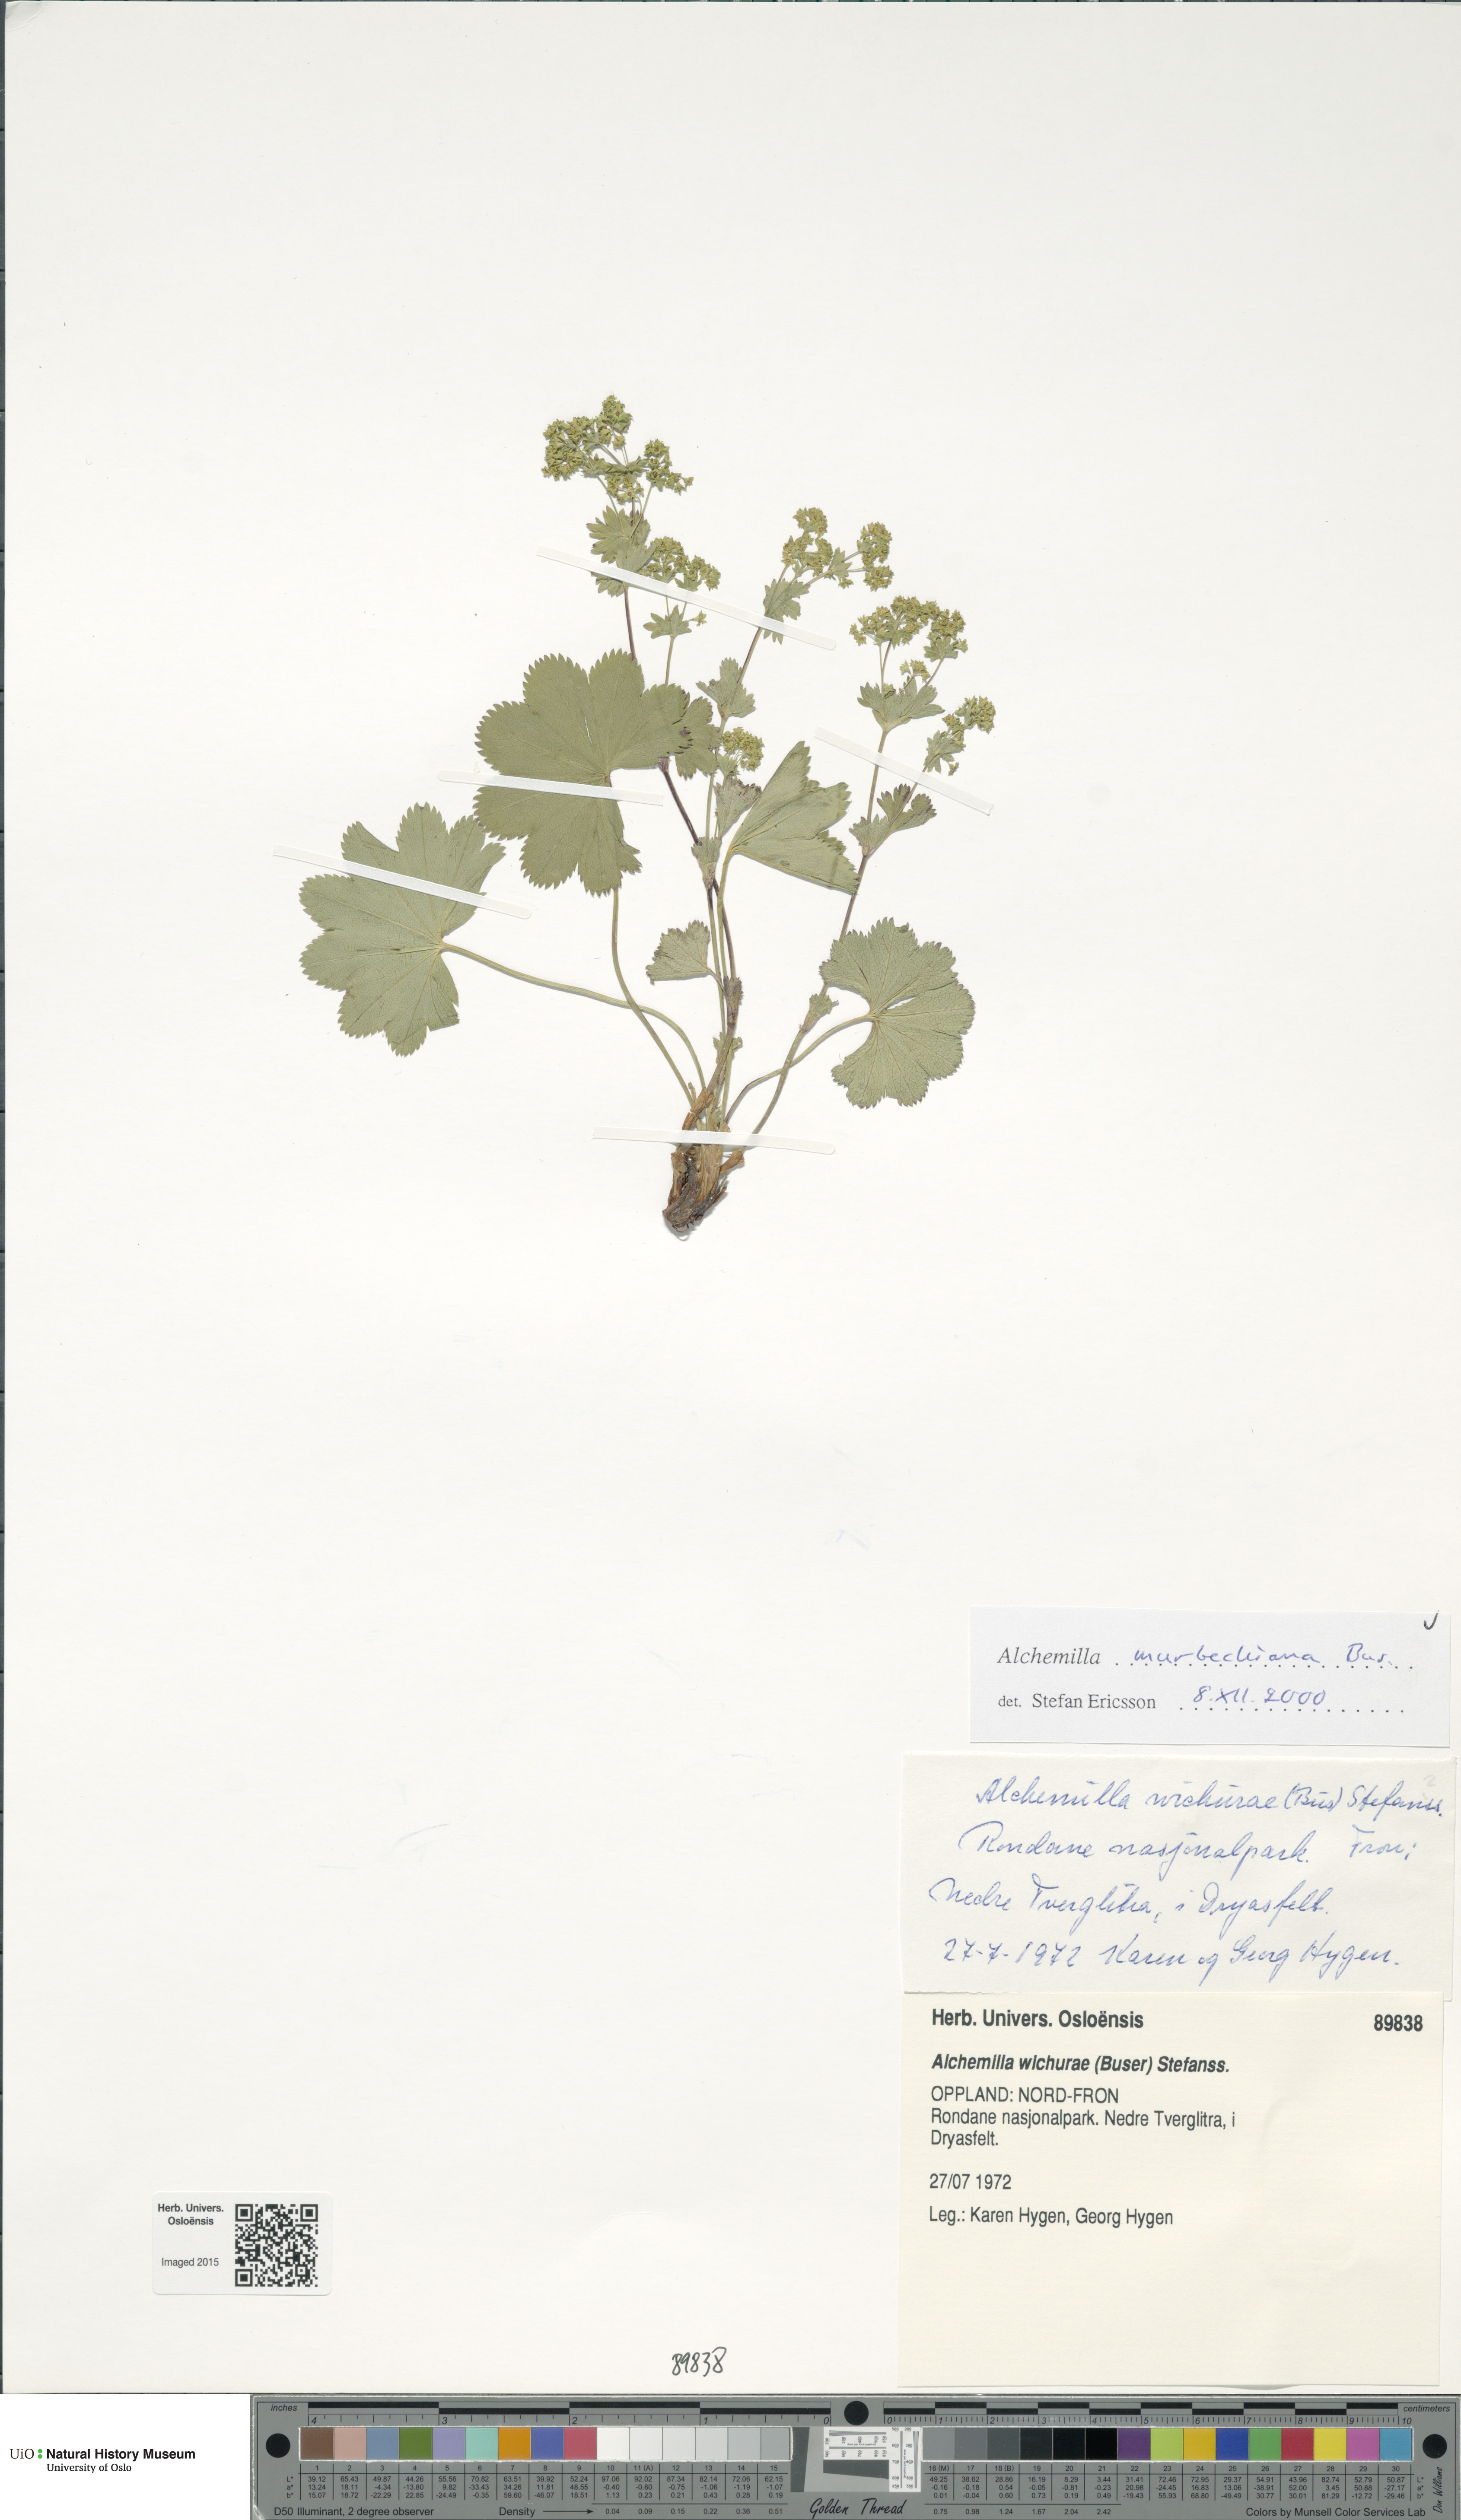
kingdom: Plantae
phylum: Tracheophyta
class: Magnoliopsida
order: Rosales
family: Rosaceae
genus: Alchemilla
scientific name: Alchemilla murbeckiana
